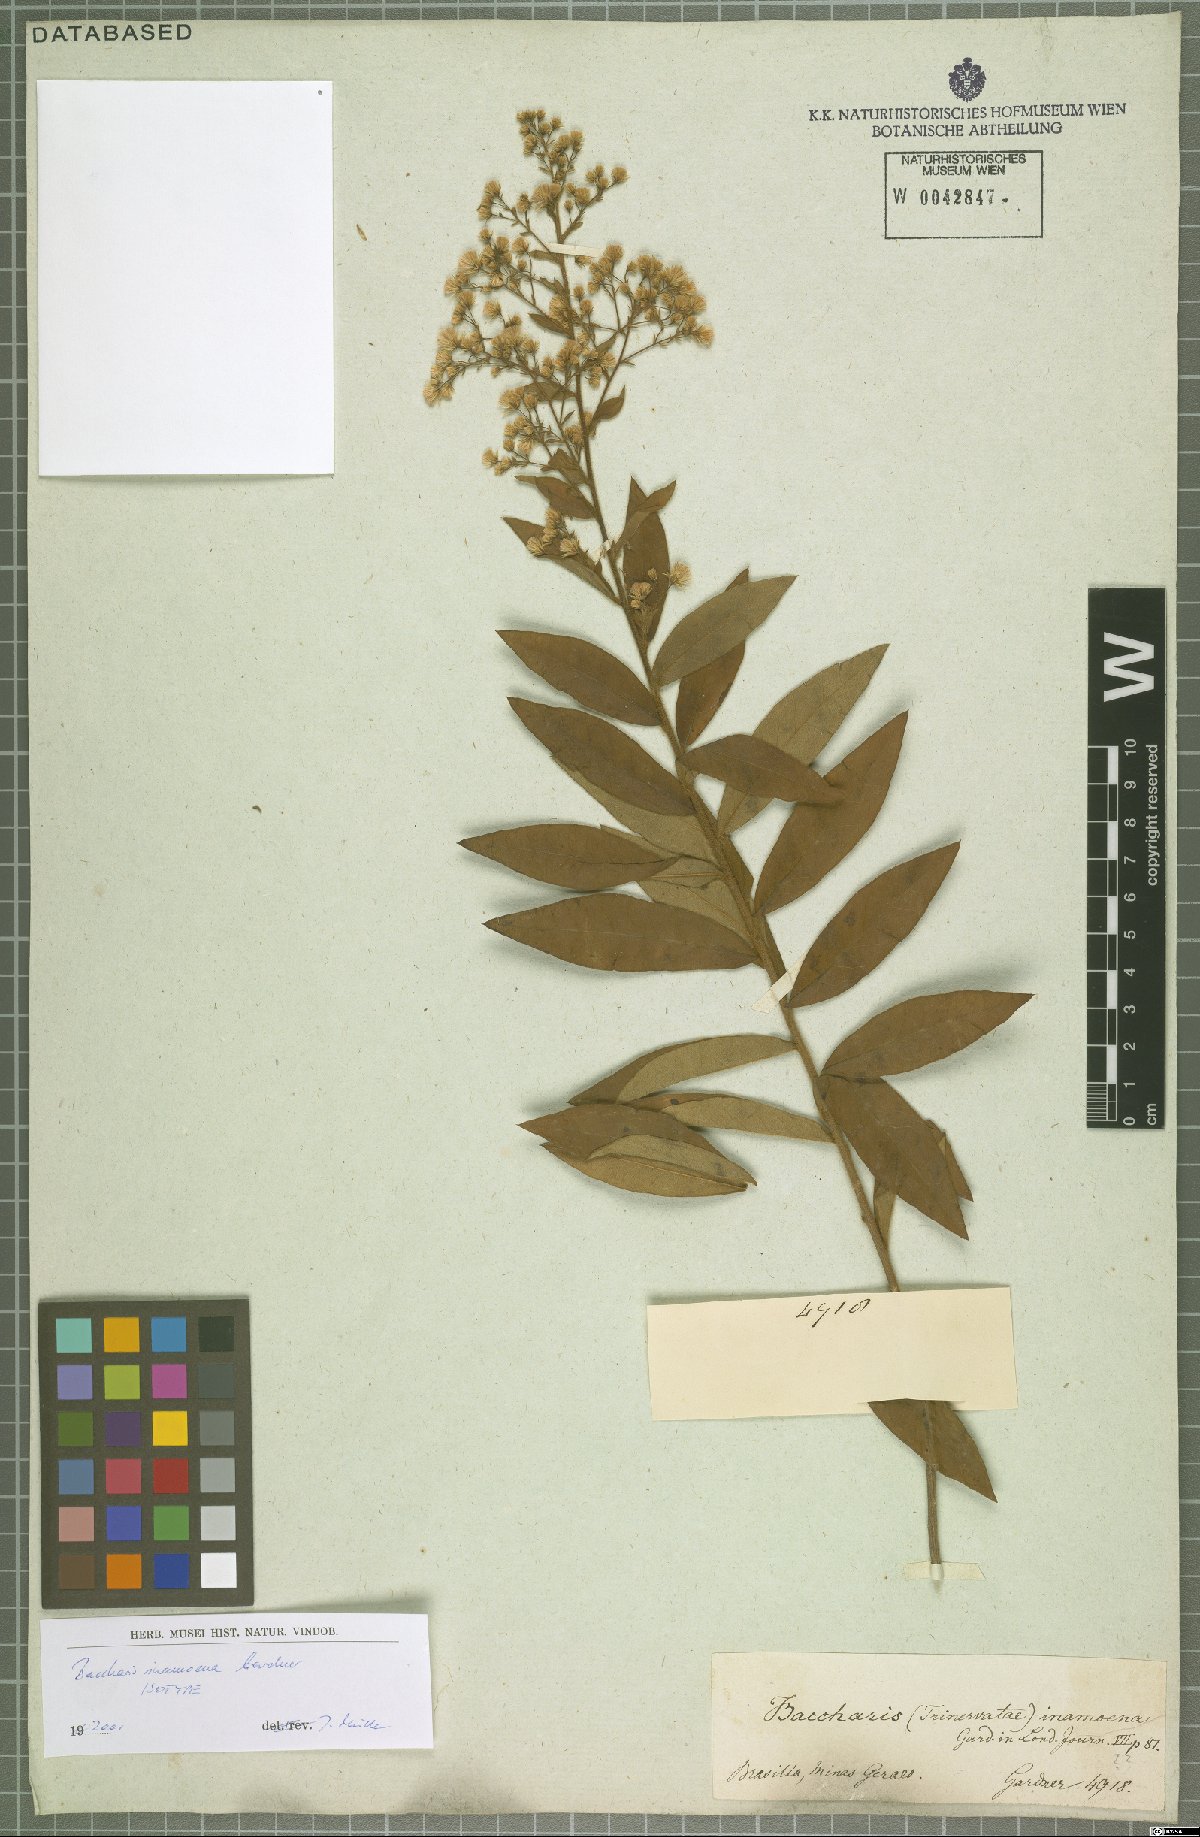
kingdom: Plantae
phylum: Tracheophyta
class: Magnoliopsida
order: Asterales
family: Asteraceae
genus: Baccharis
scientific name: Baccharis rufidula
